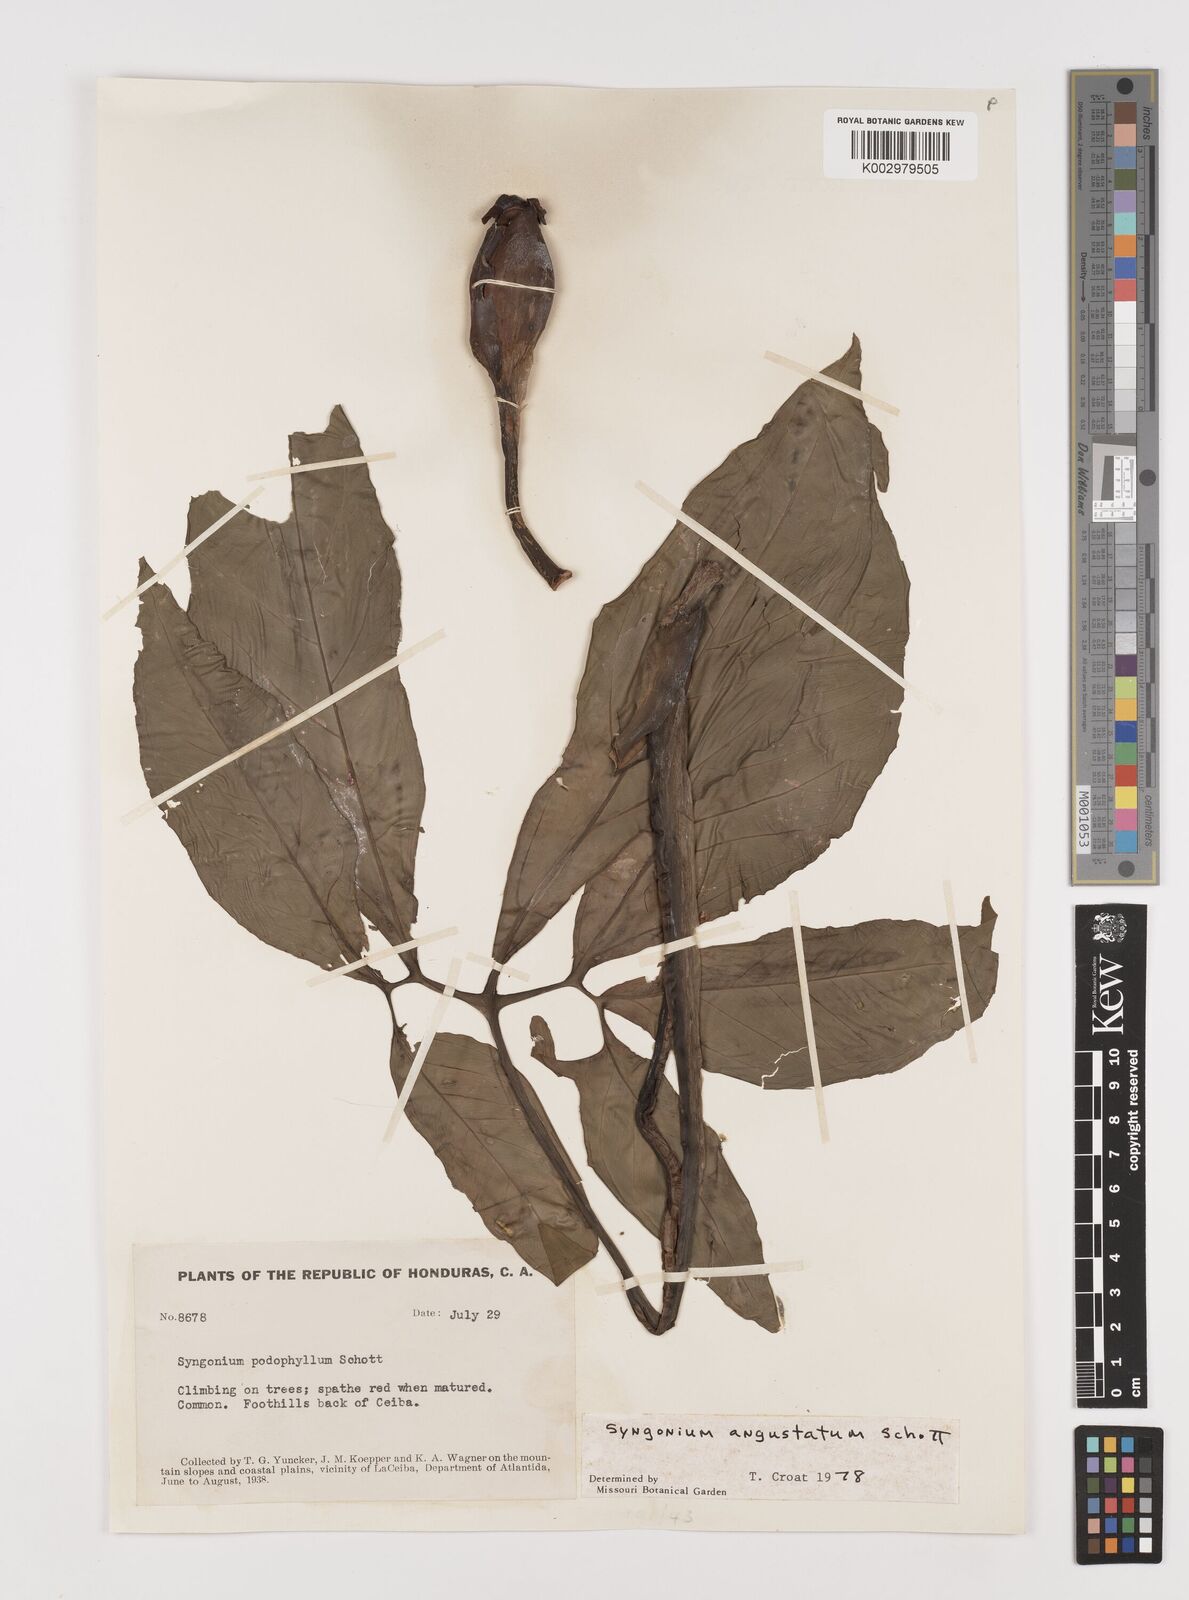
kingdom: Plantae
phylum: Tracheophyta
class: Liliopsida
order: Alismatales
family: Araceae
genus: Syngonium
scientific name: Syngonium angustatum
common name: Fivefingers
